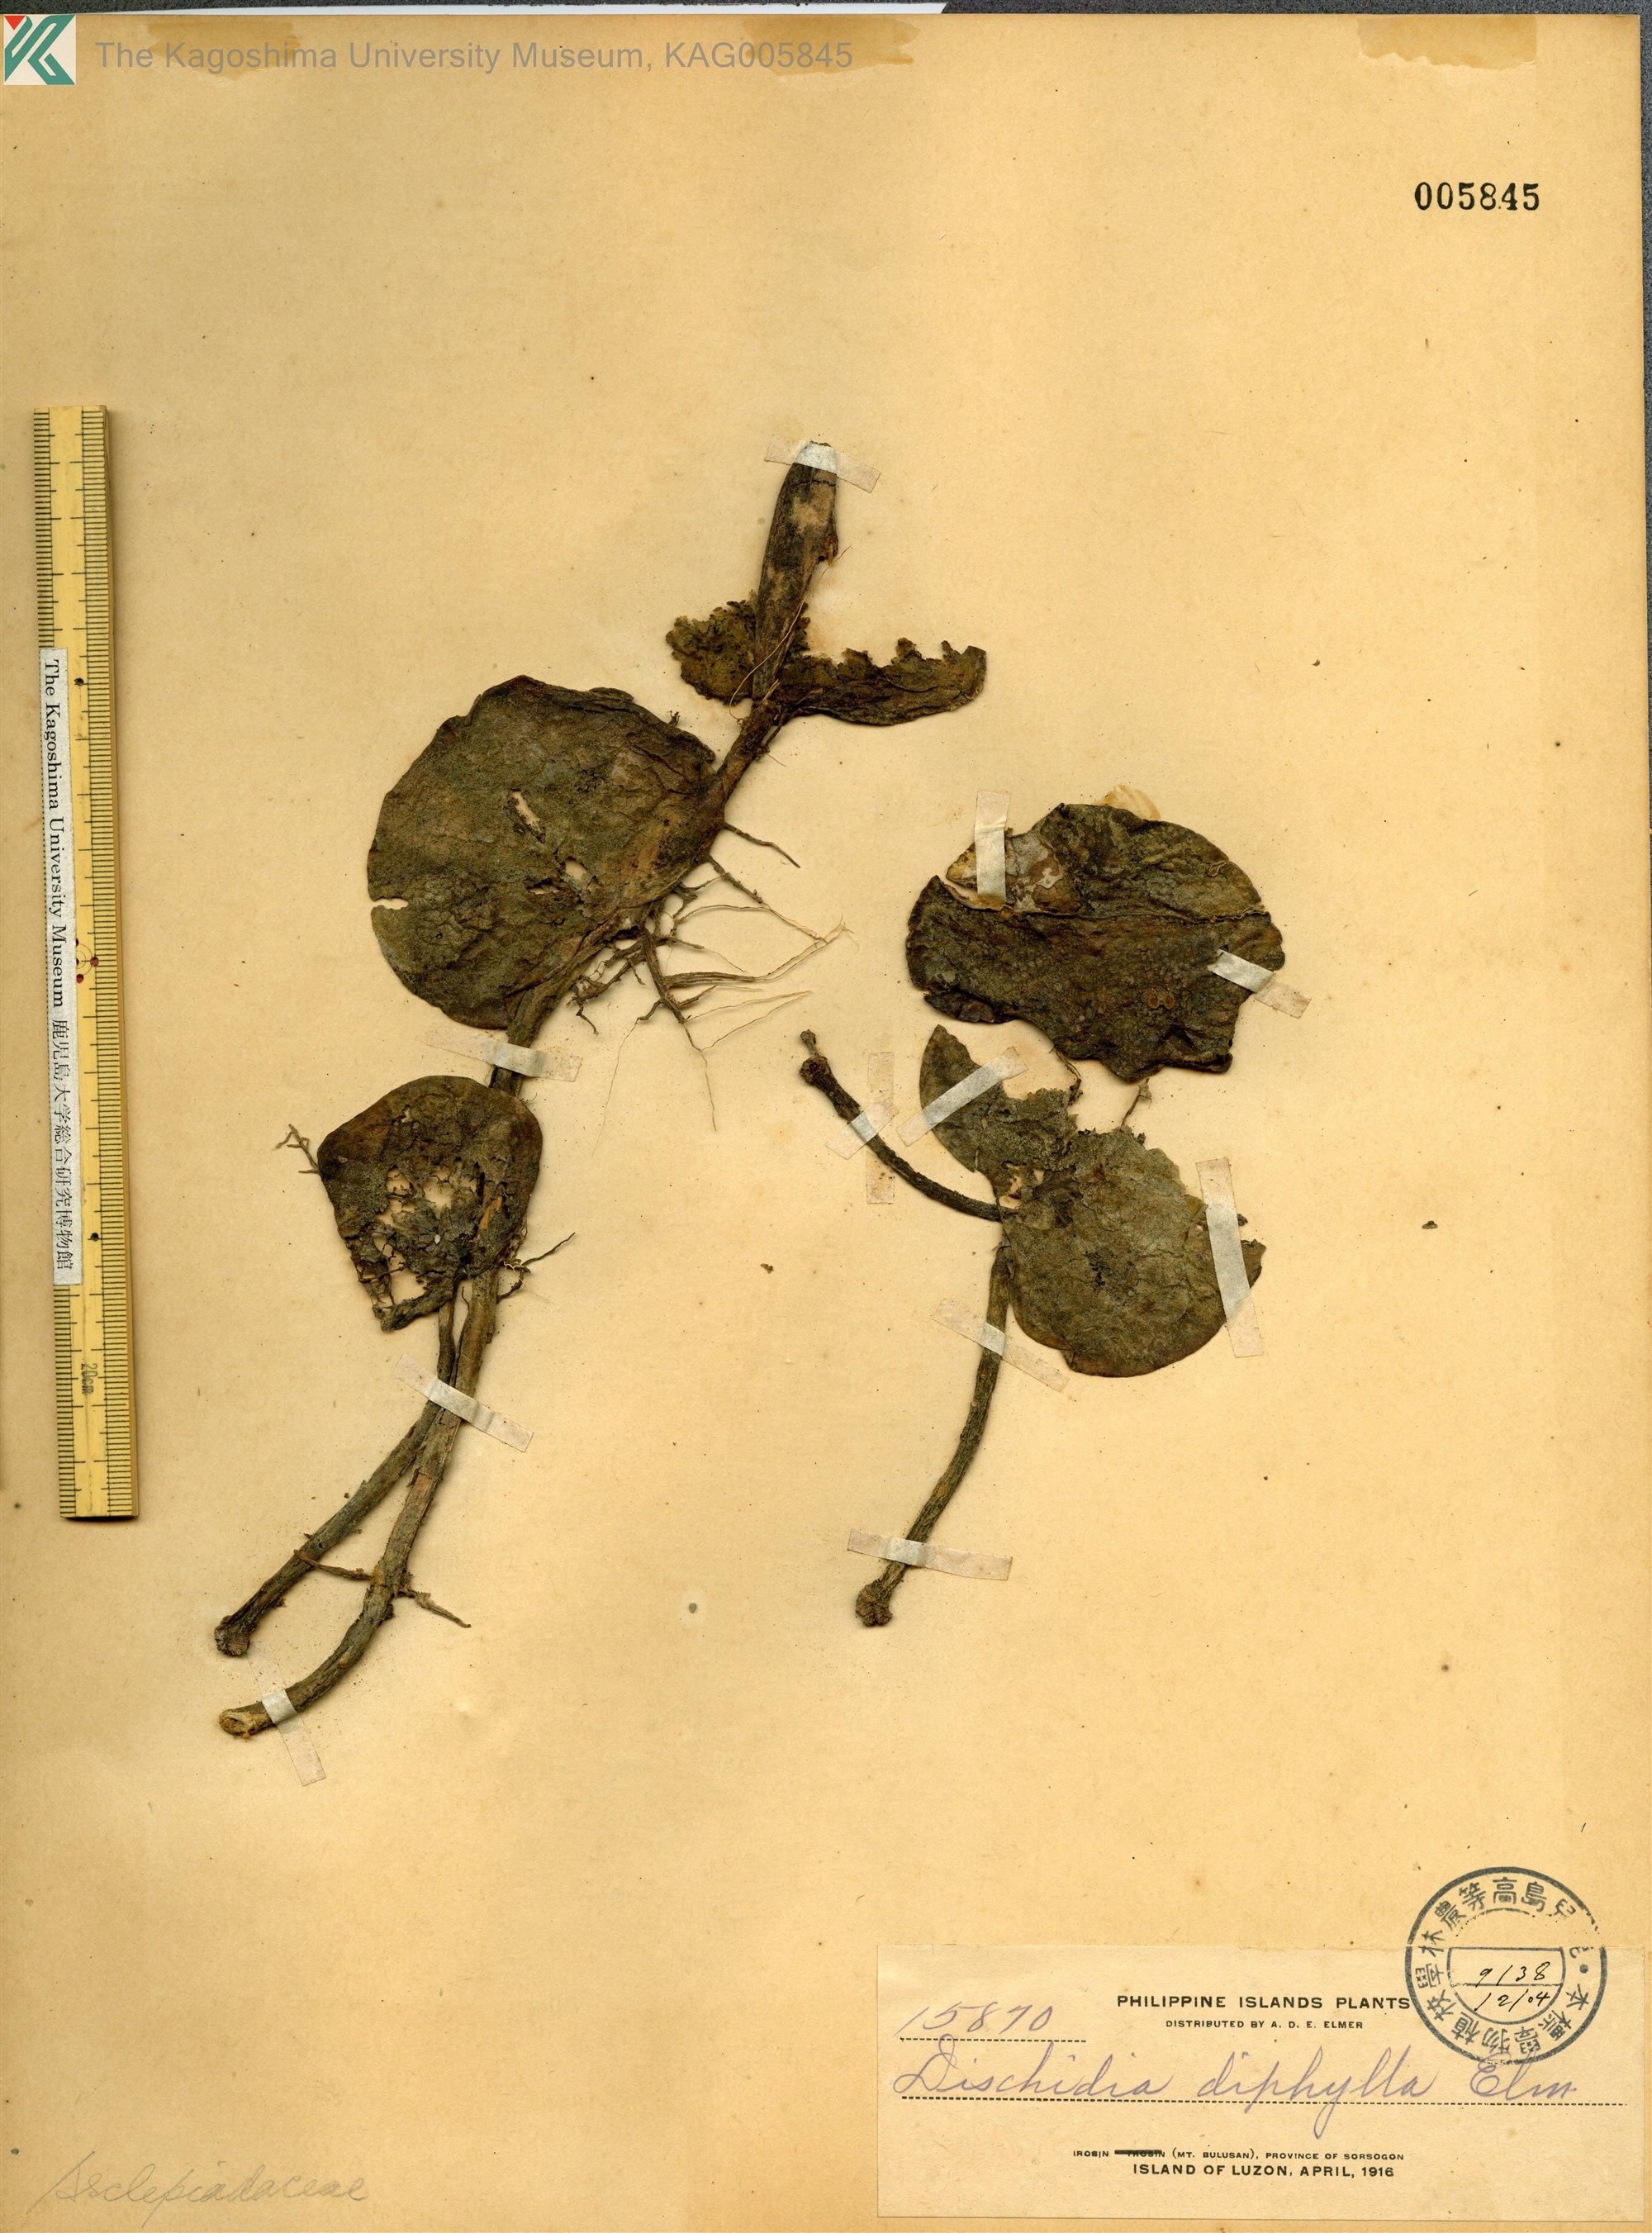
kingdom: Plantae
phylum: Tracheophyta
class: Magnoliopsida
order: Gentianales
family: Apocynaceae
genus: Dischidia
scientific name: Dischidia diphylla
